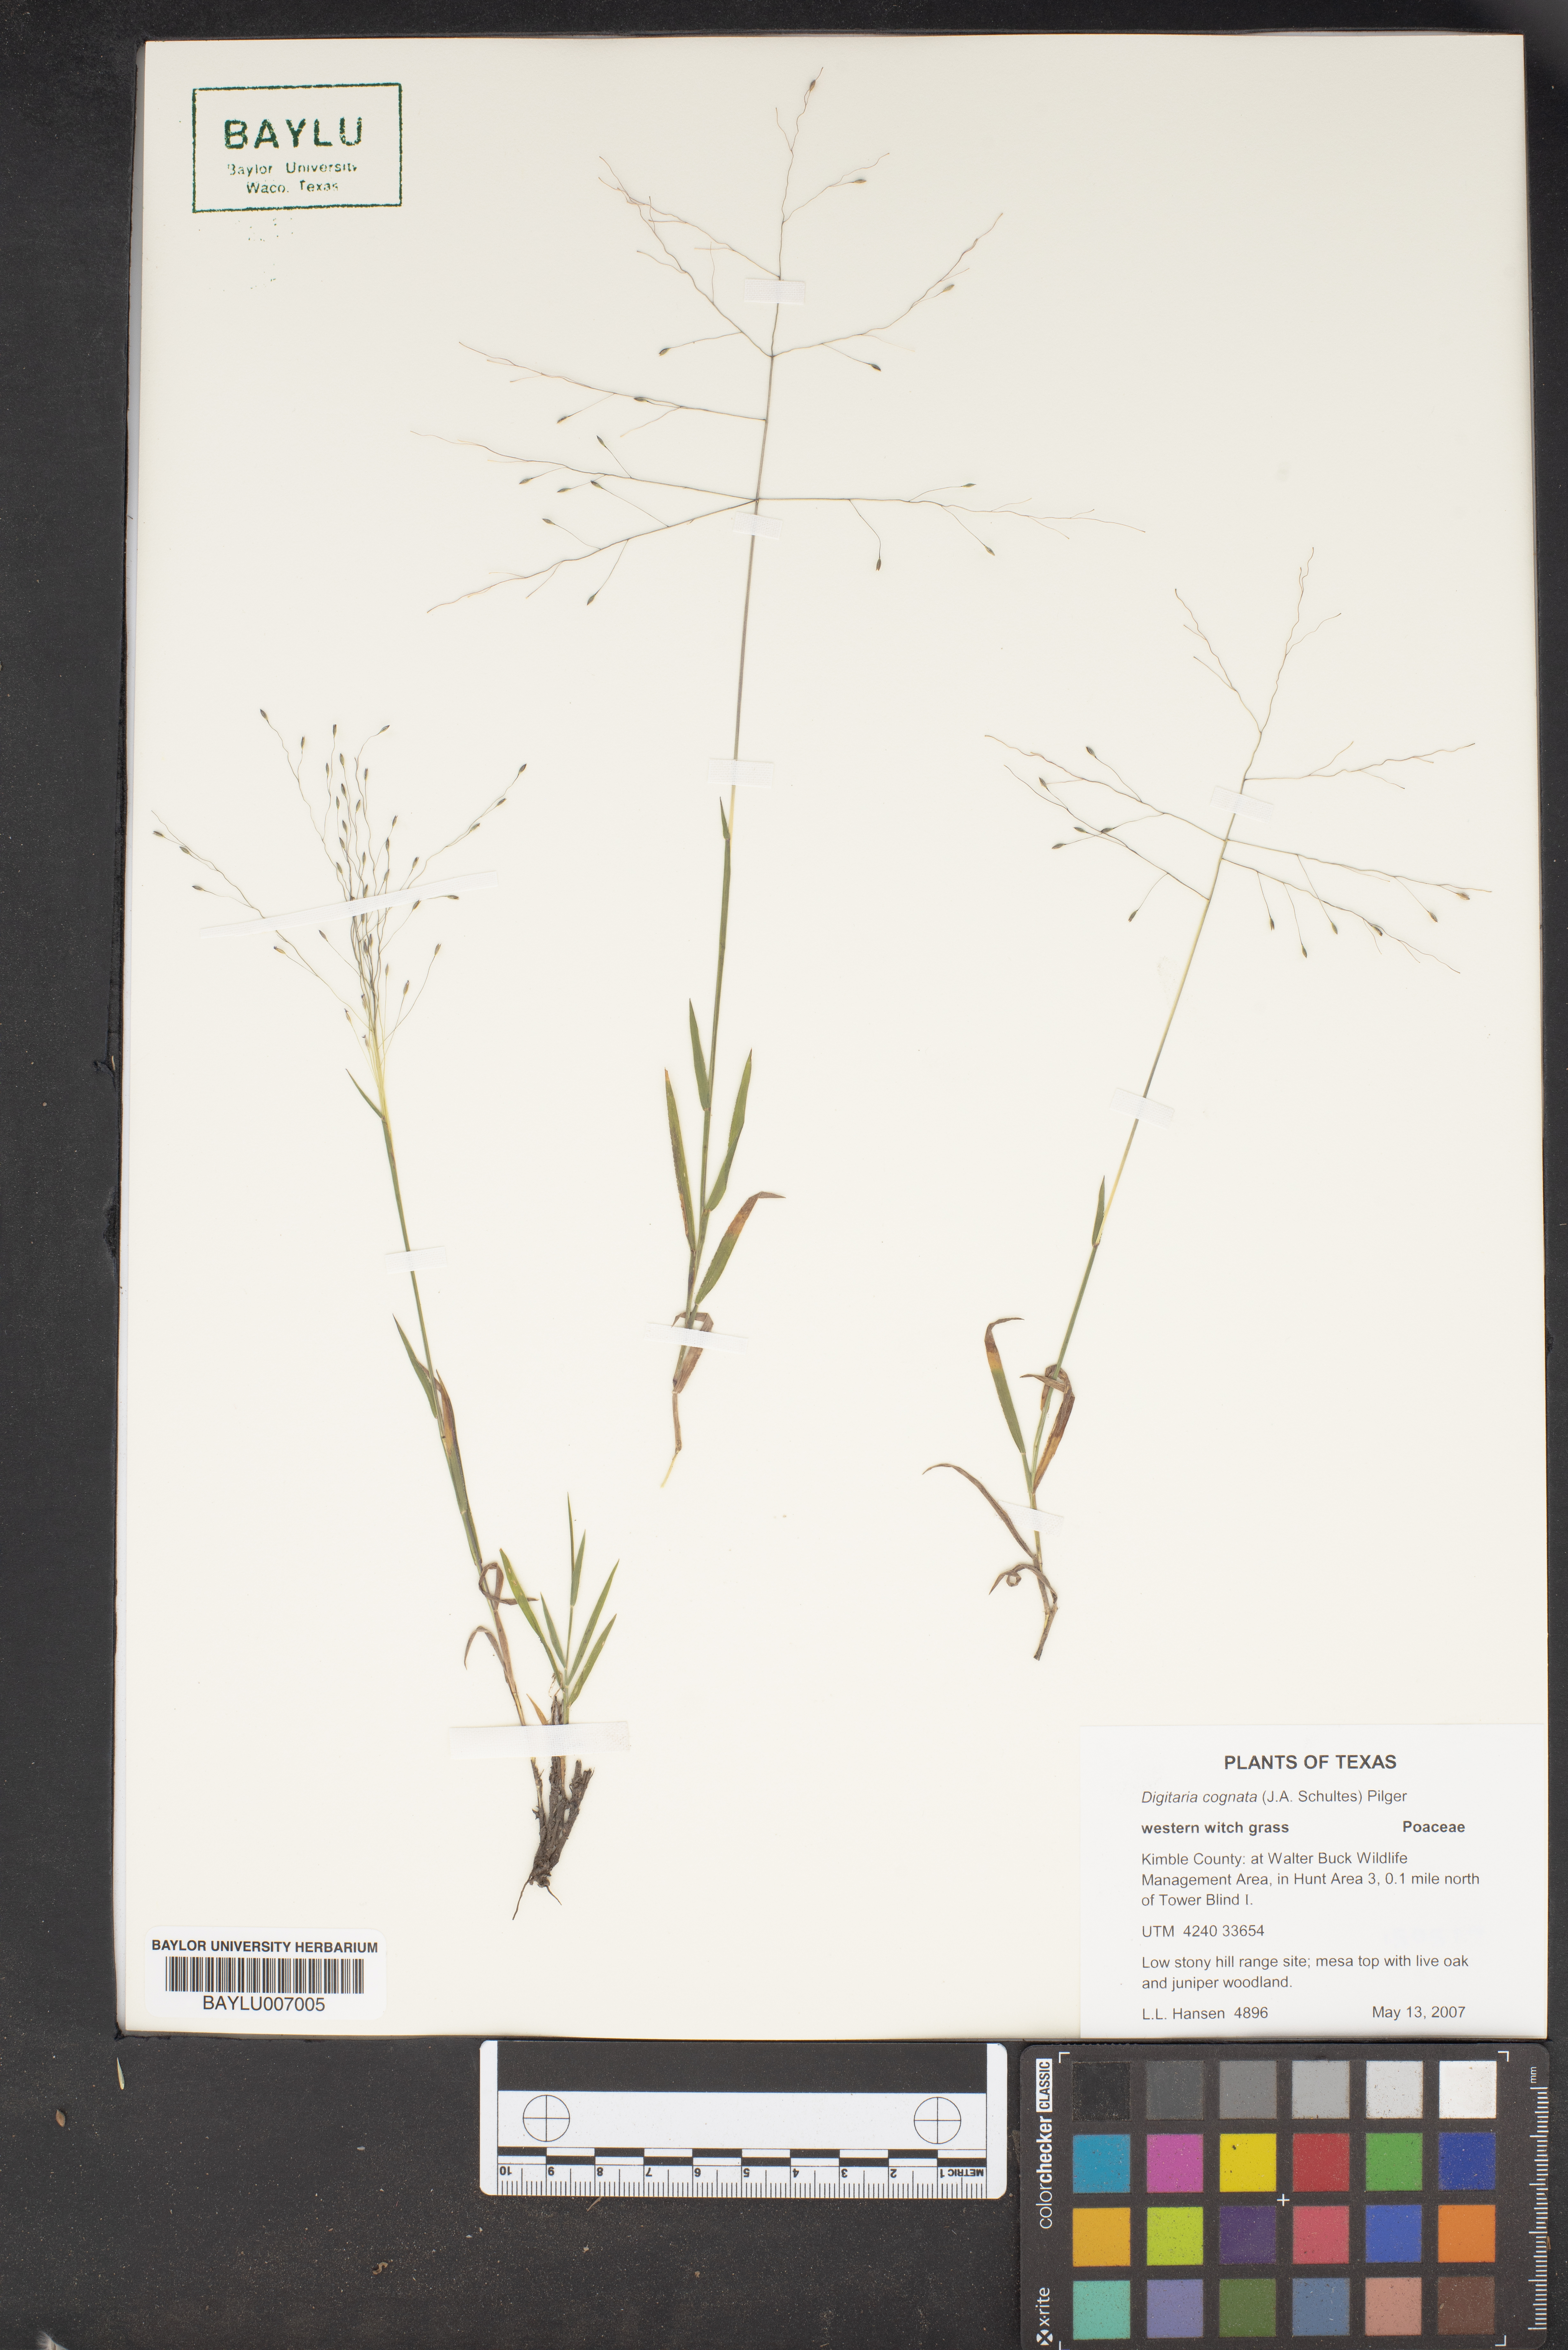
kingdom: Plantae
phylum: Tracheophyta
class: Liliopsida
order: Poales
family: Poaceae
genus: Digitaria
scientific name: Digitaria cognata
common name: Fall witchgrass
